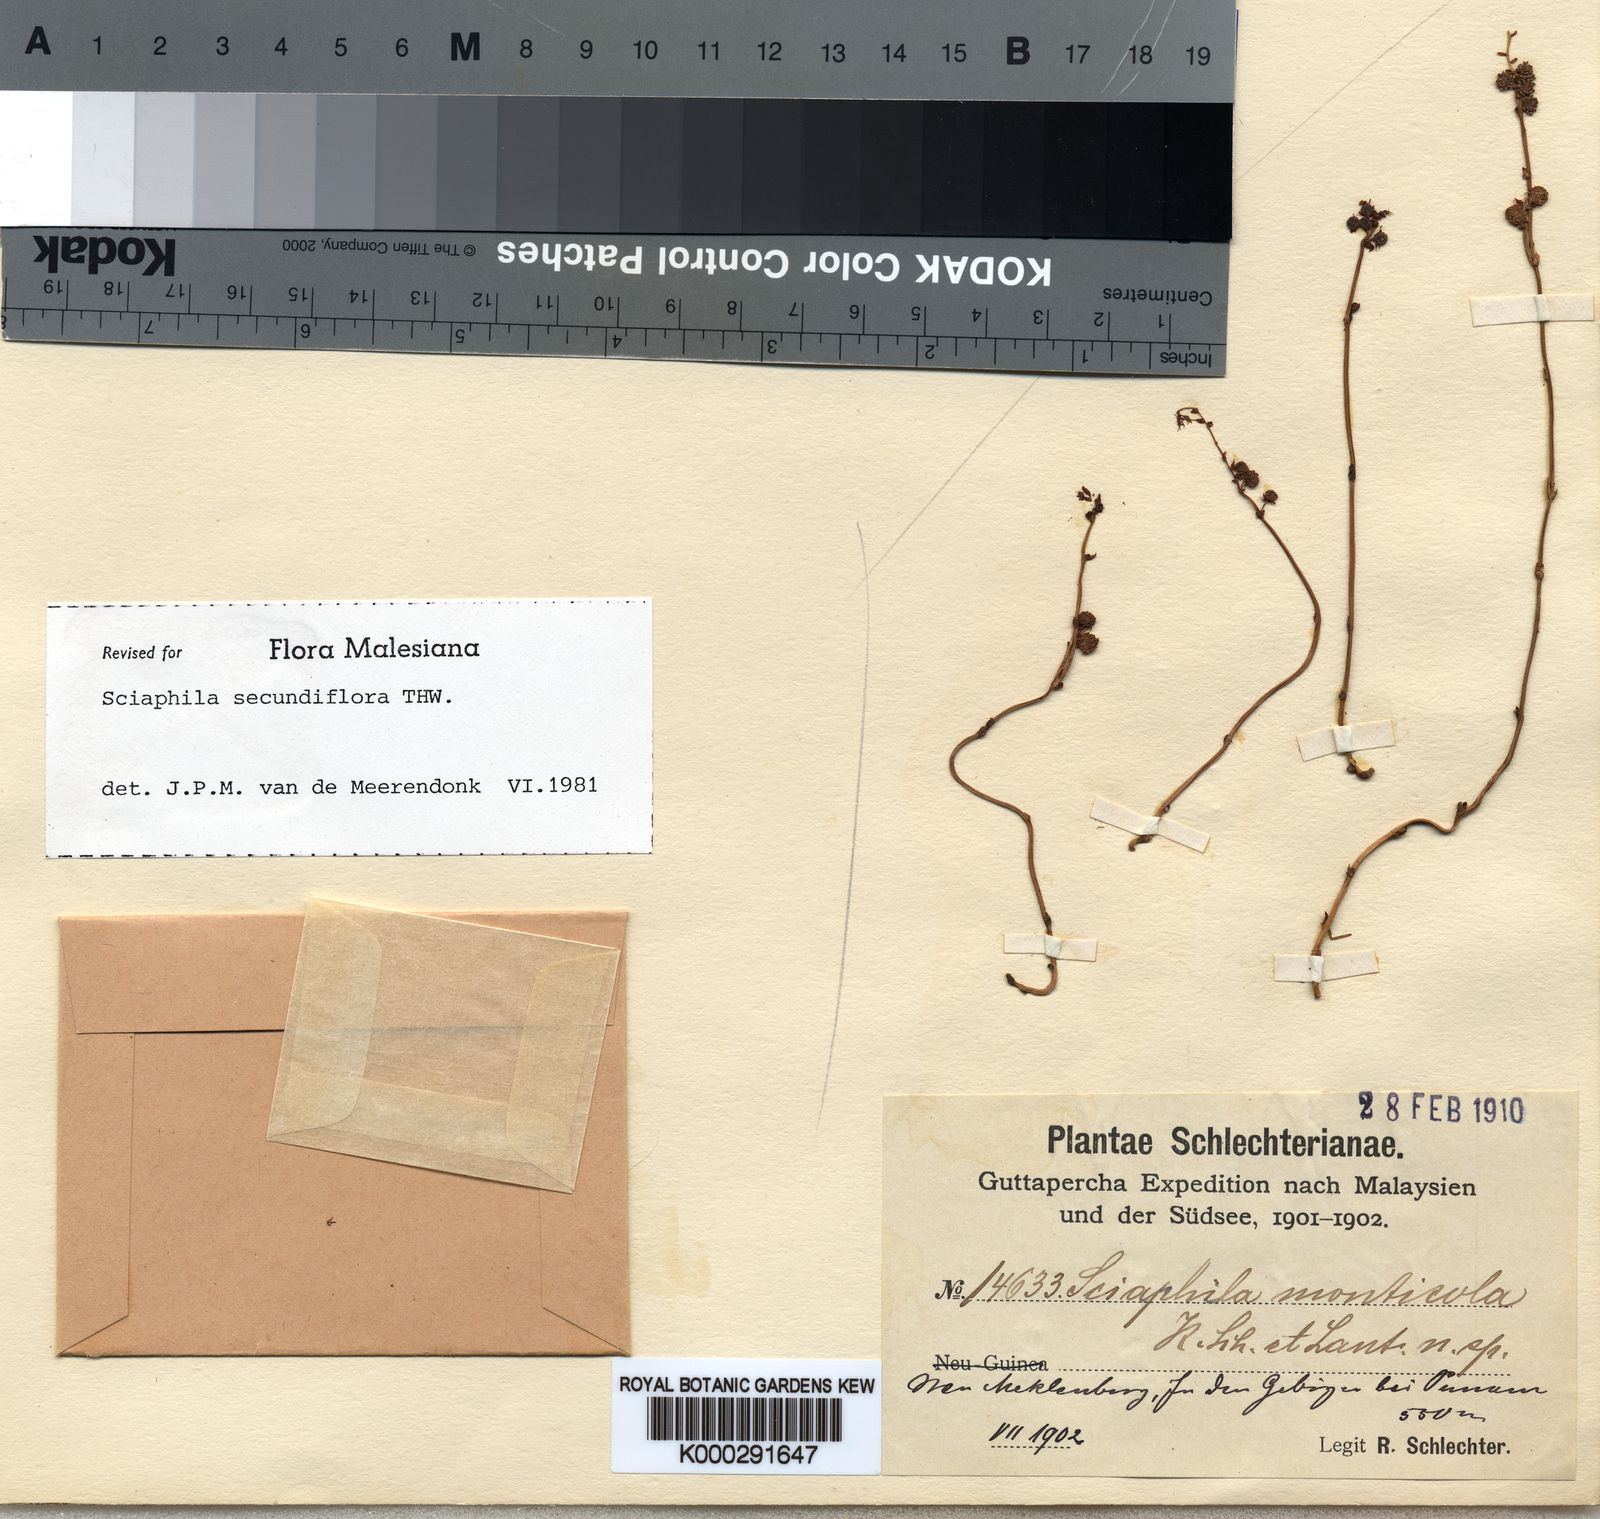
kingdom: Plantae
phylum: Tracheophyta
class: Liliopsida
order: Pandanales
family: Triuridaceae
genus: Sciaphila
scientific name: Sciaphila
